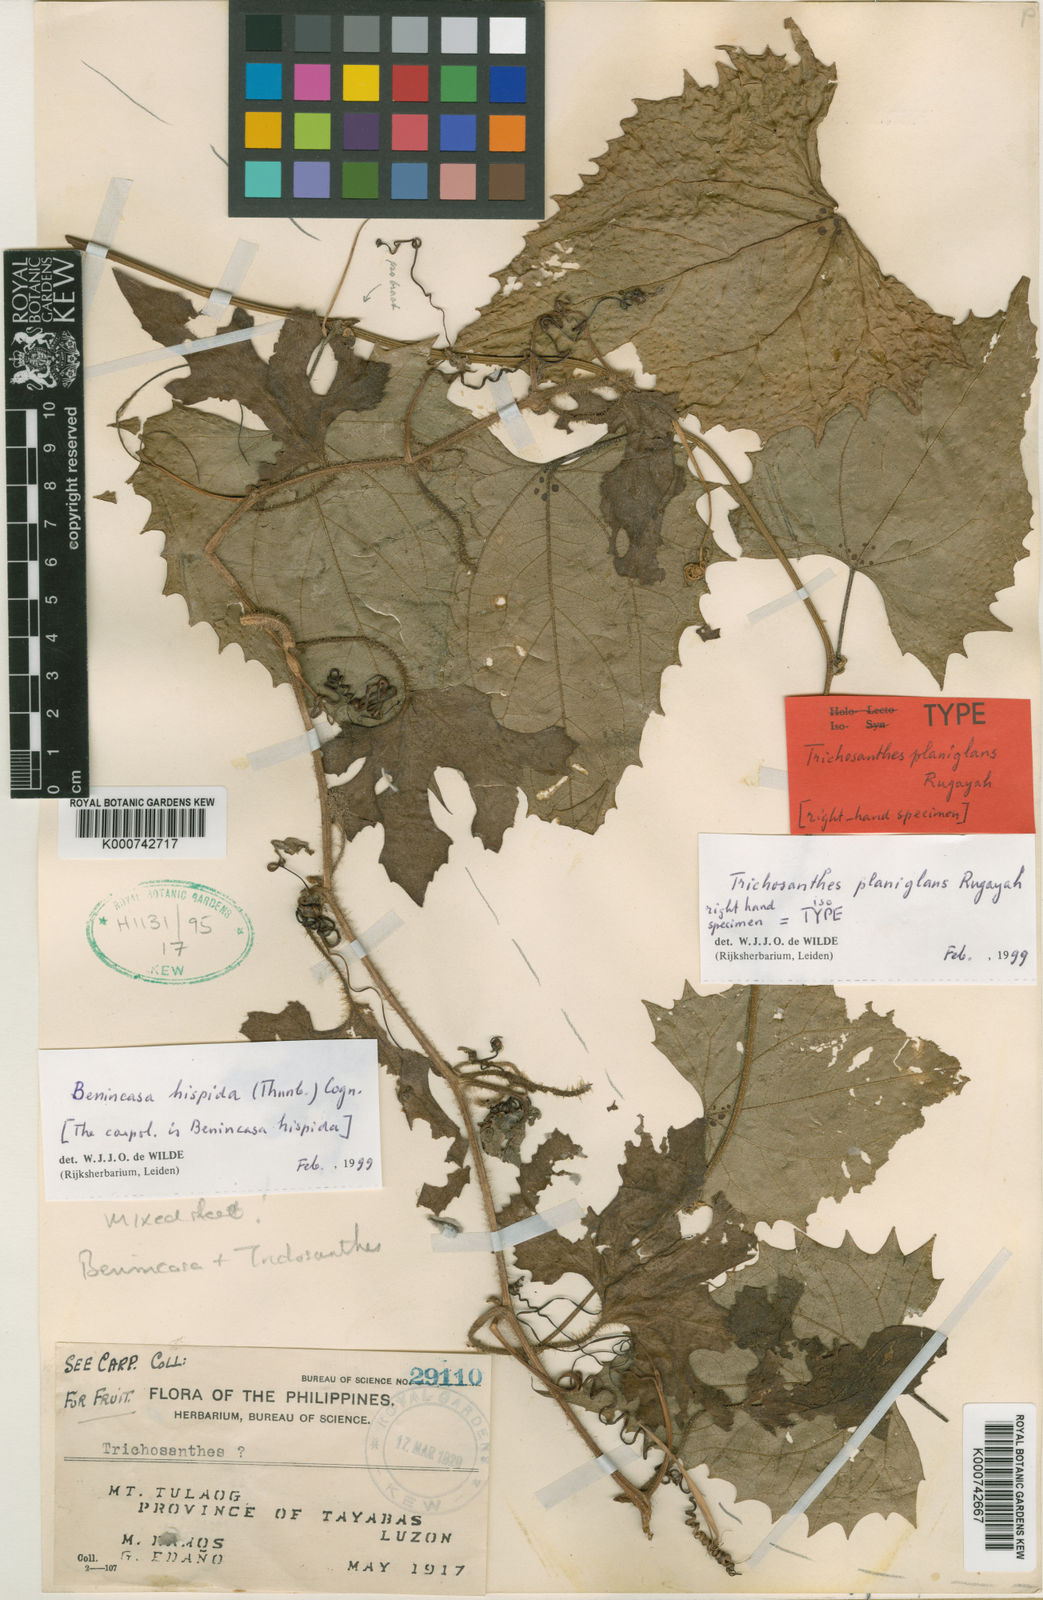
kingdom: Plantae
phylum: Tracheophyta
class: Magnoliopsida
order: Cucurbitales
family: Cucurbitaceae
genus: Trichosanthes
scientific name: Trichosanthes planiglans
